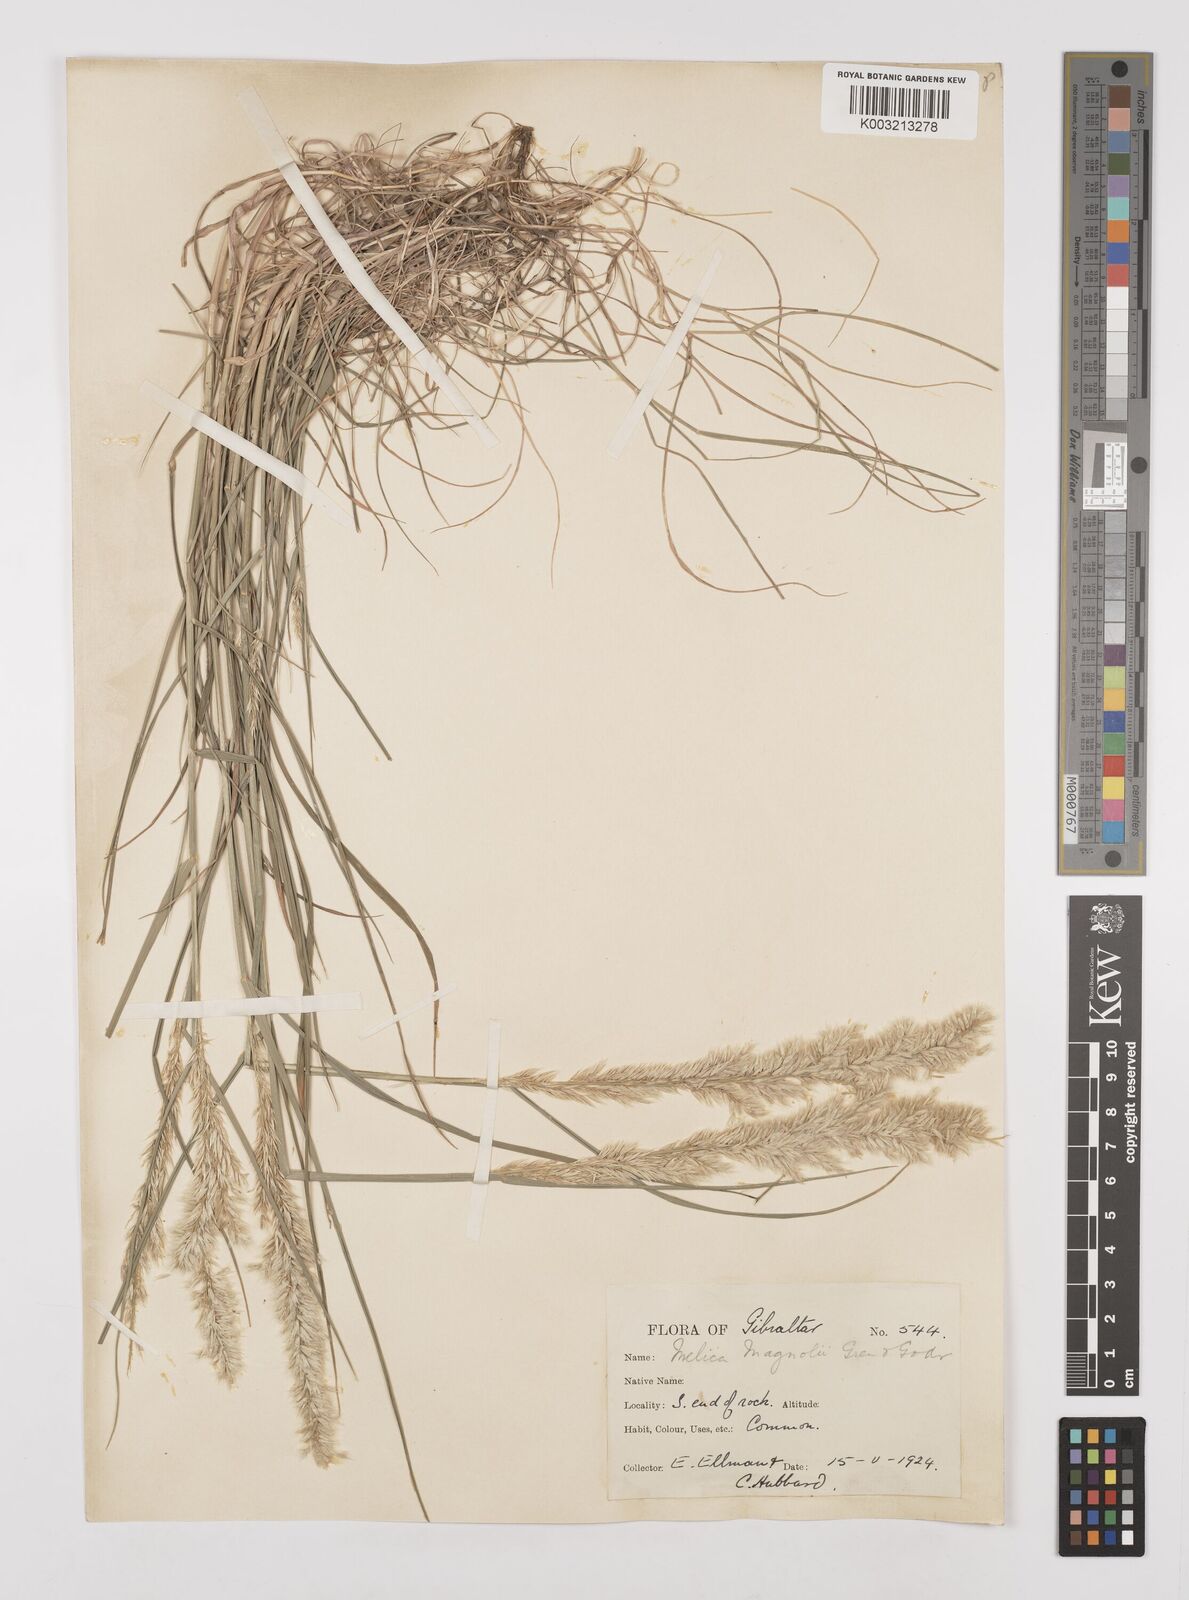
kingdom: Plantae
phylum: Tracheophyta
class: Liliopsida
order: Poales
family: Poaceae
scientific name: Poaceae
